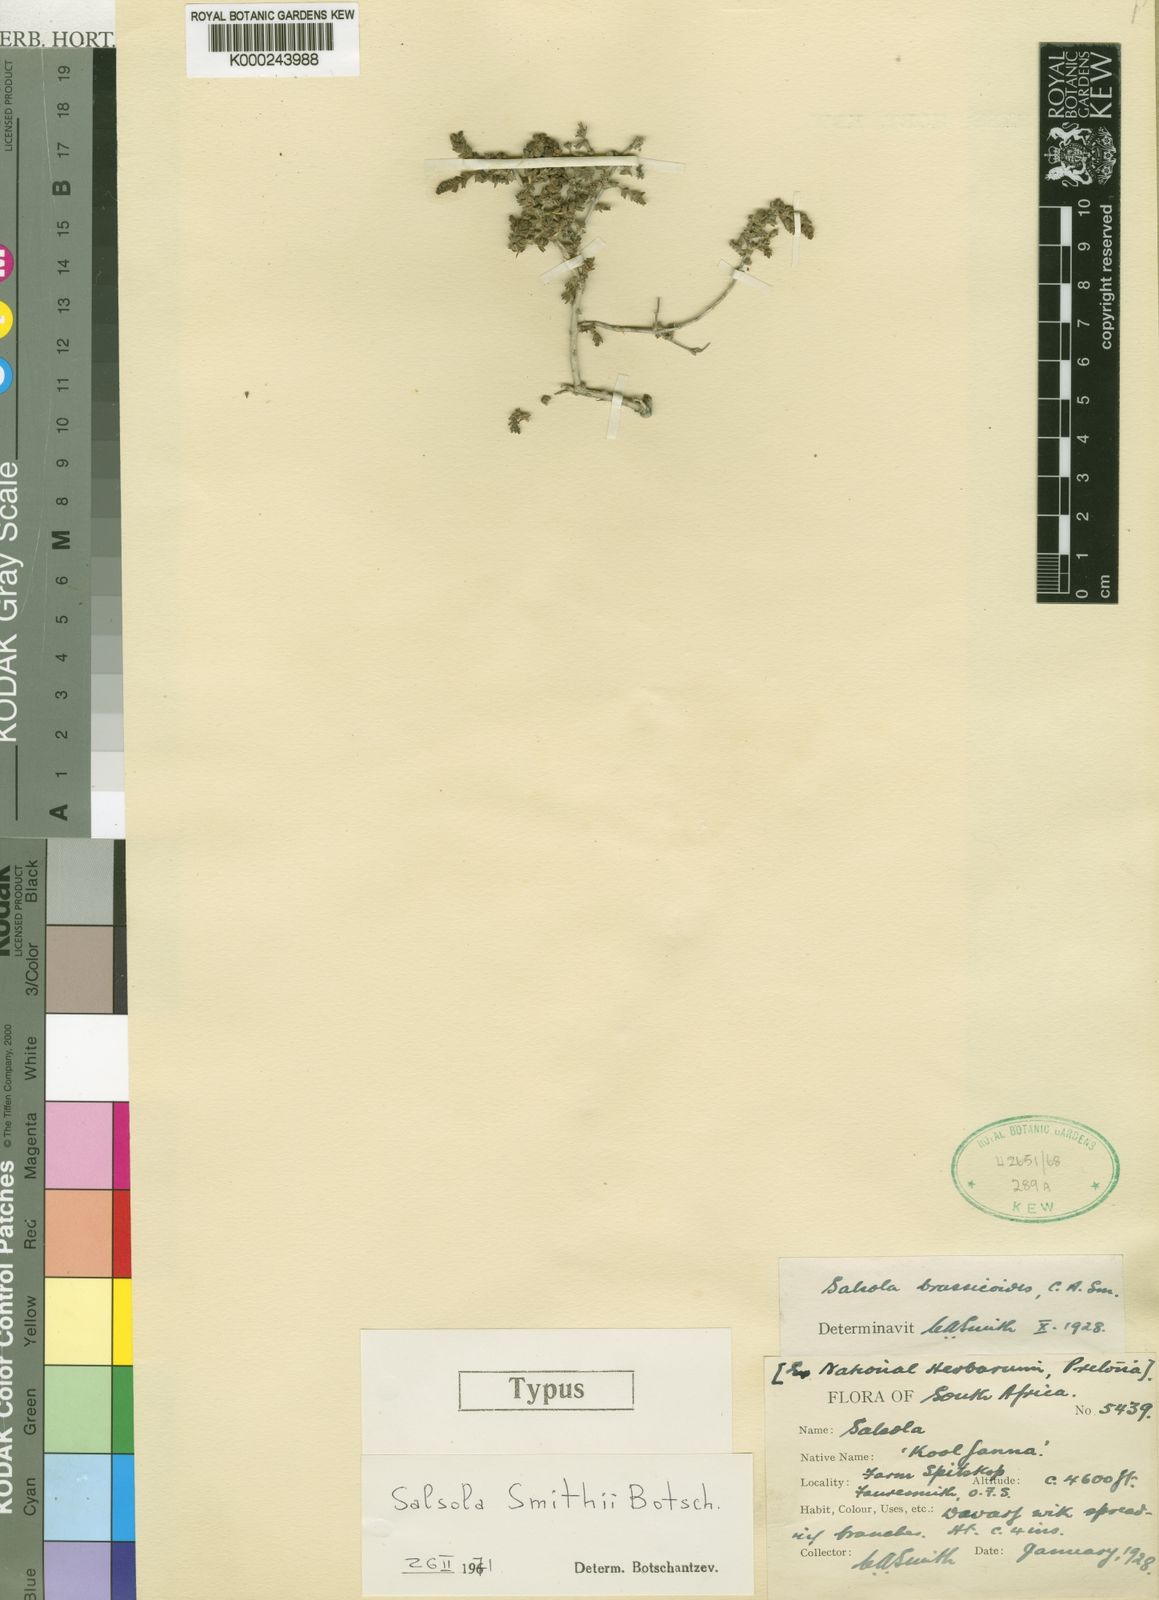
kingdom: Plantae
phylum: Tracheophyta
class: Magnoliopsida
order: Caryophyllales
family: Amaranthaceae
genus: Caroxylon
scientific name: Caroxylon smithii
